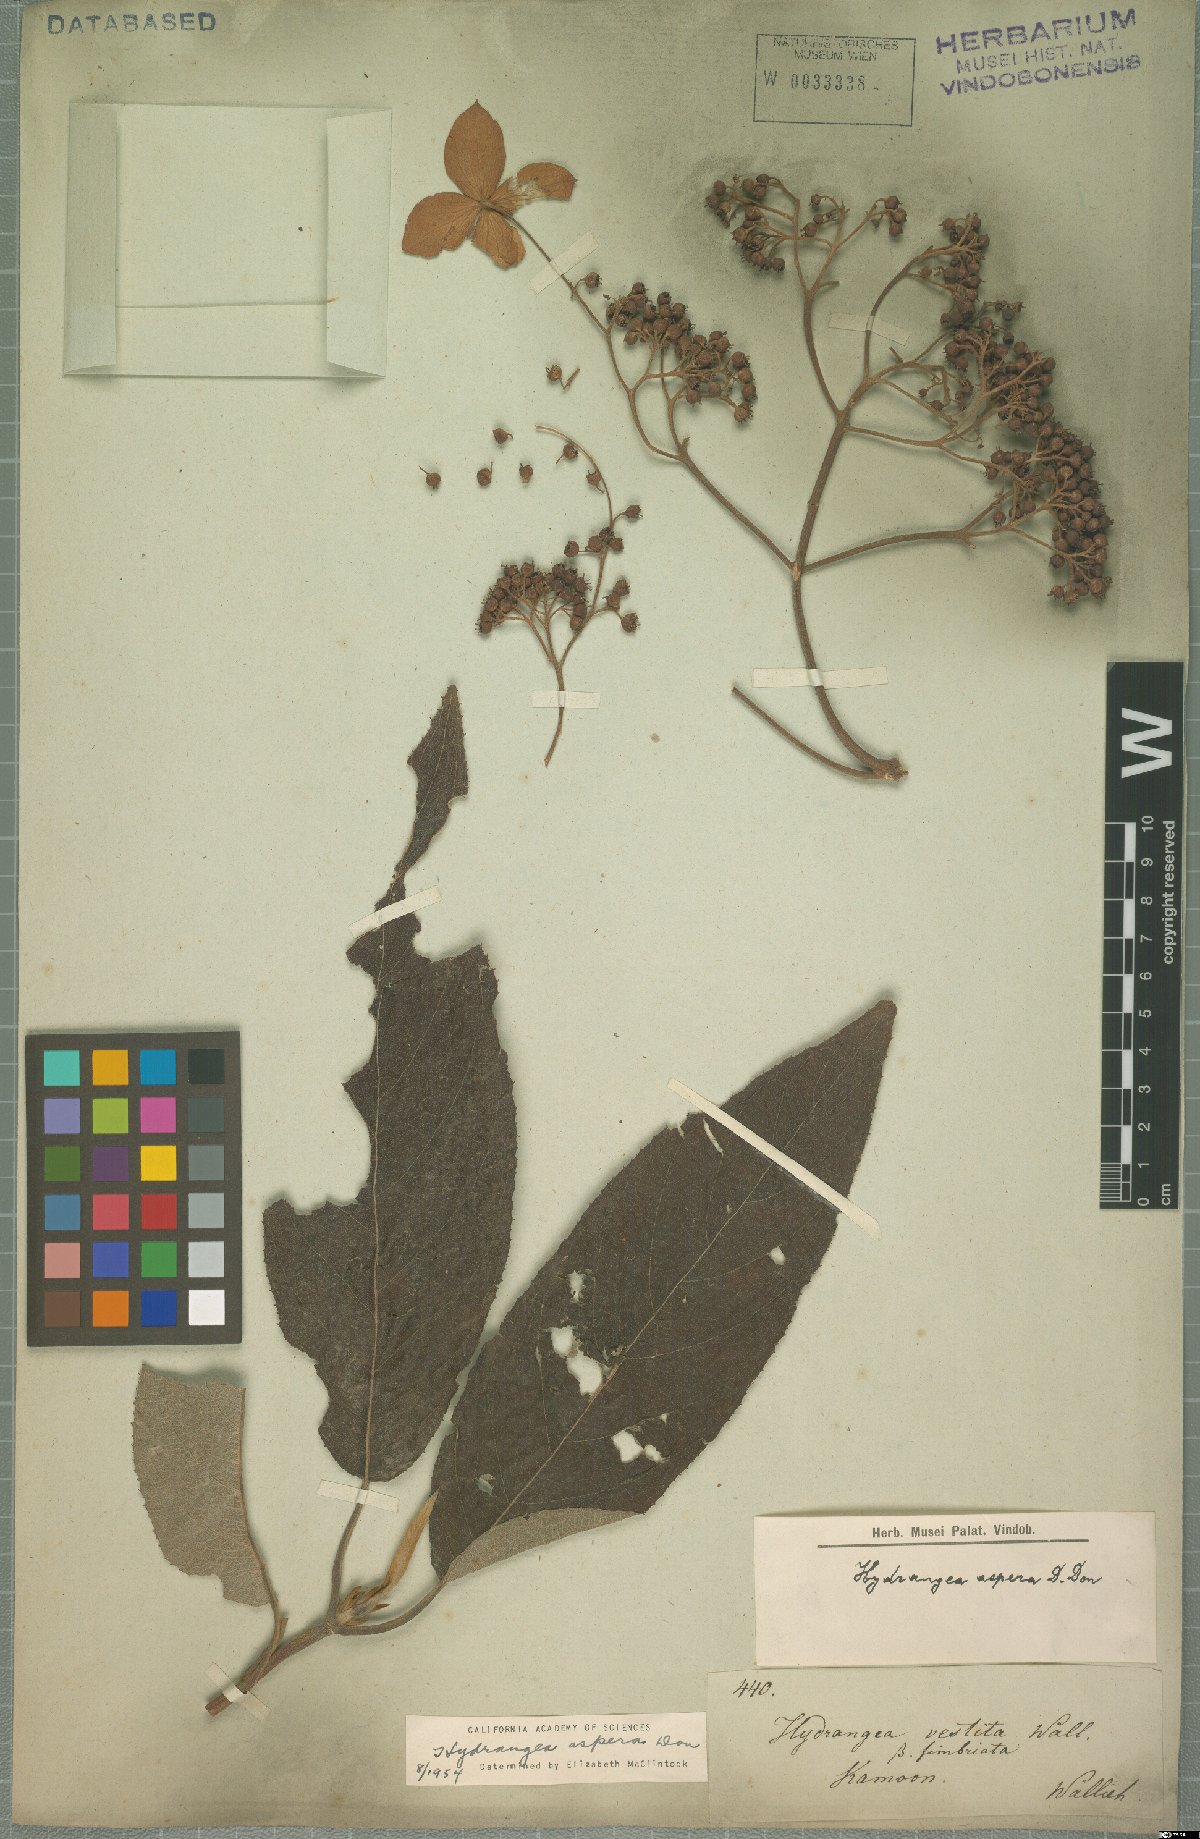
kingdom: Plantae
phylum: Tracheophyta
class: Magnoliopsida
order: Cornales
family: Hydrangeaceae
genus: Hydrangea
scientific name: Hydrangea heteromalla
